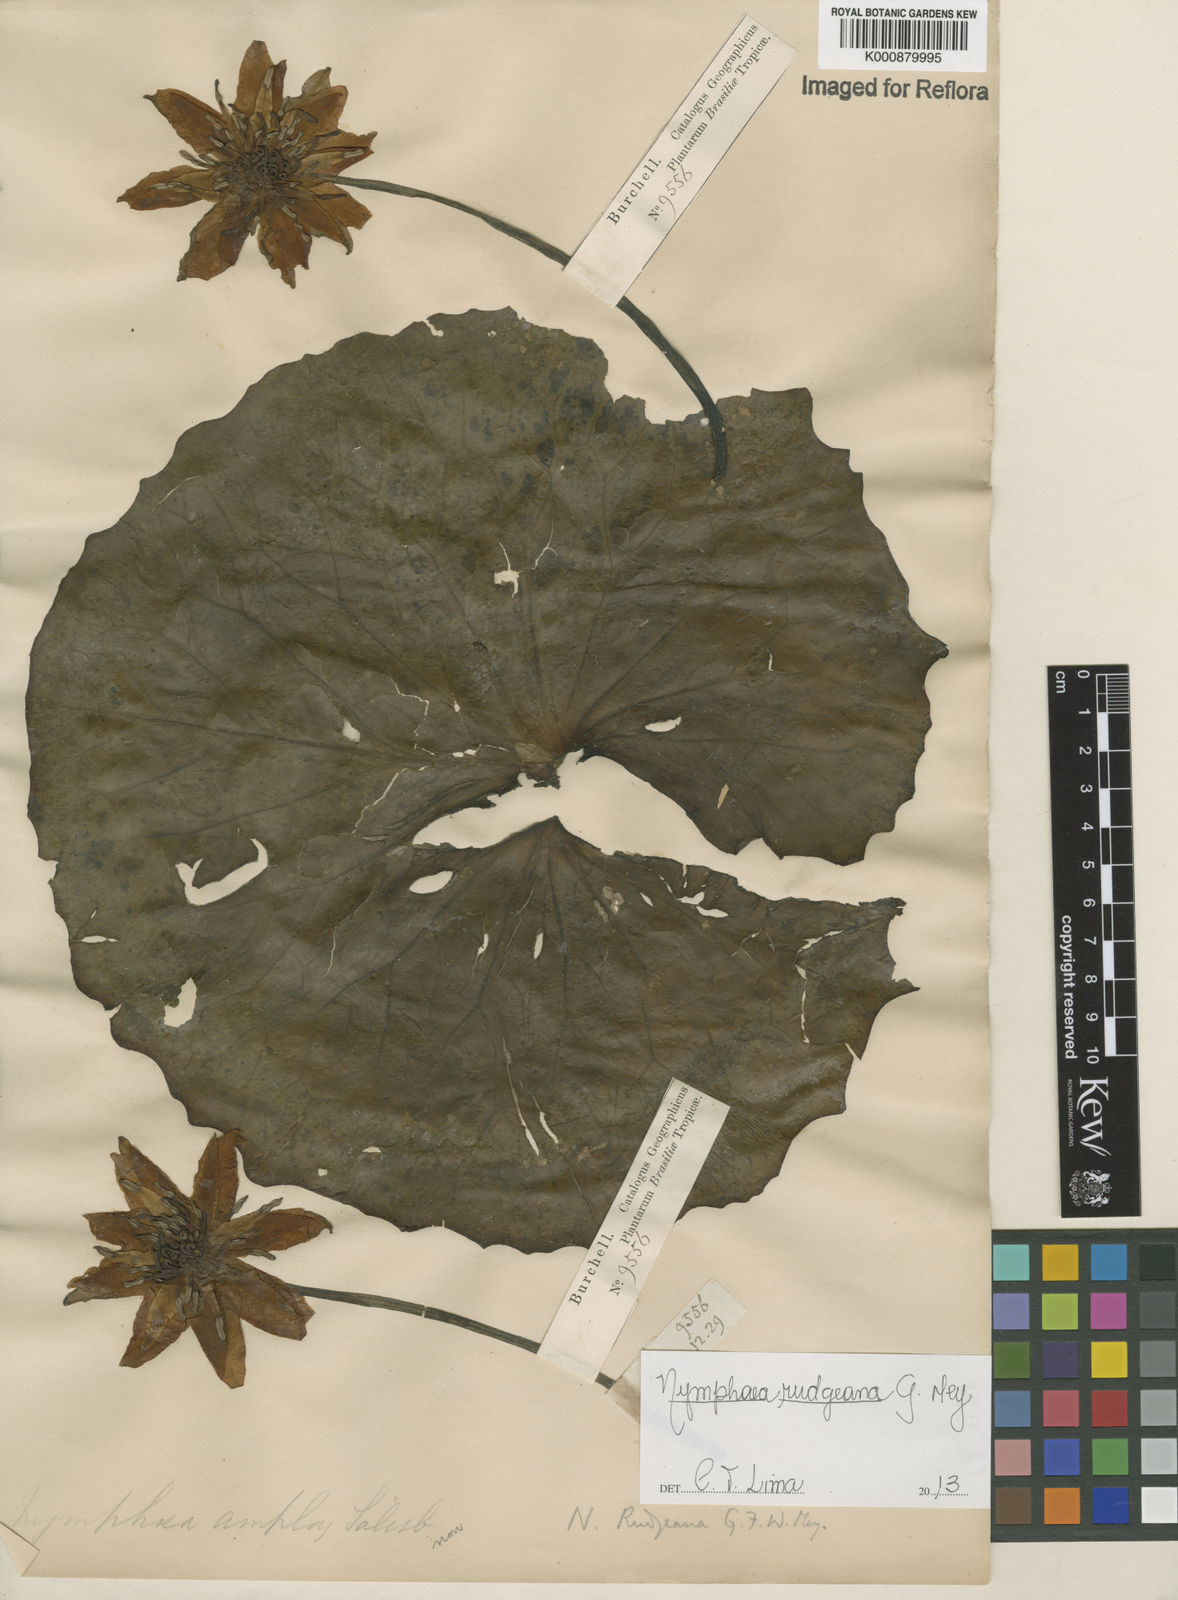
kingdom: Plantae
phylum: Tracheophyta
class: Magnoliopsida
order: Nymphaeales
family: Nymphaeaceae
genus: Nymphaea
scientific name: Nymphaea rudgeana
